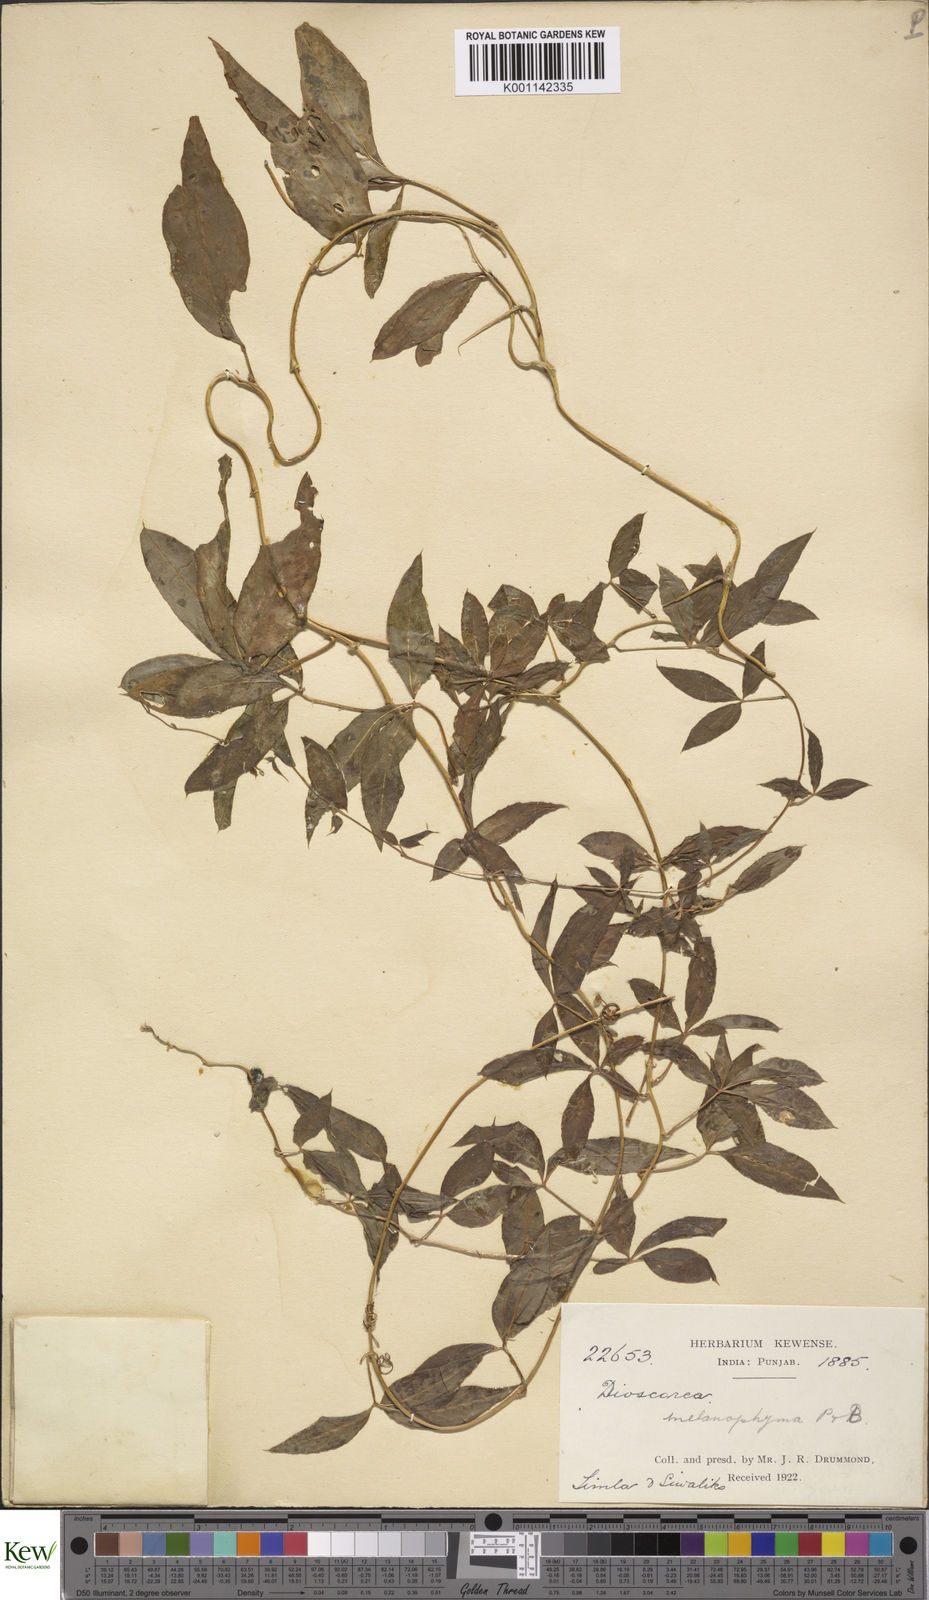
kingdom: Plantae
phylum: Tracheophyta
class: Liliopsida
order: Dioscoreales
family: Dioscoreaceae
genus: Dioscorea
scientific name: Dioscorea melanophyma
